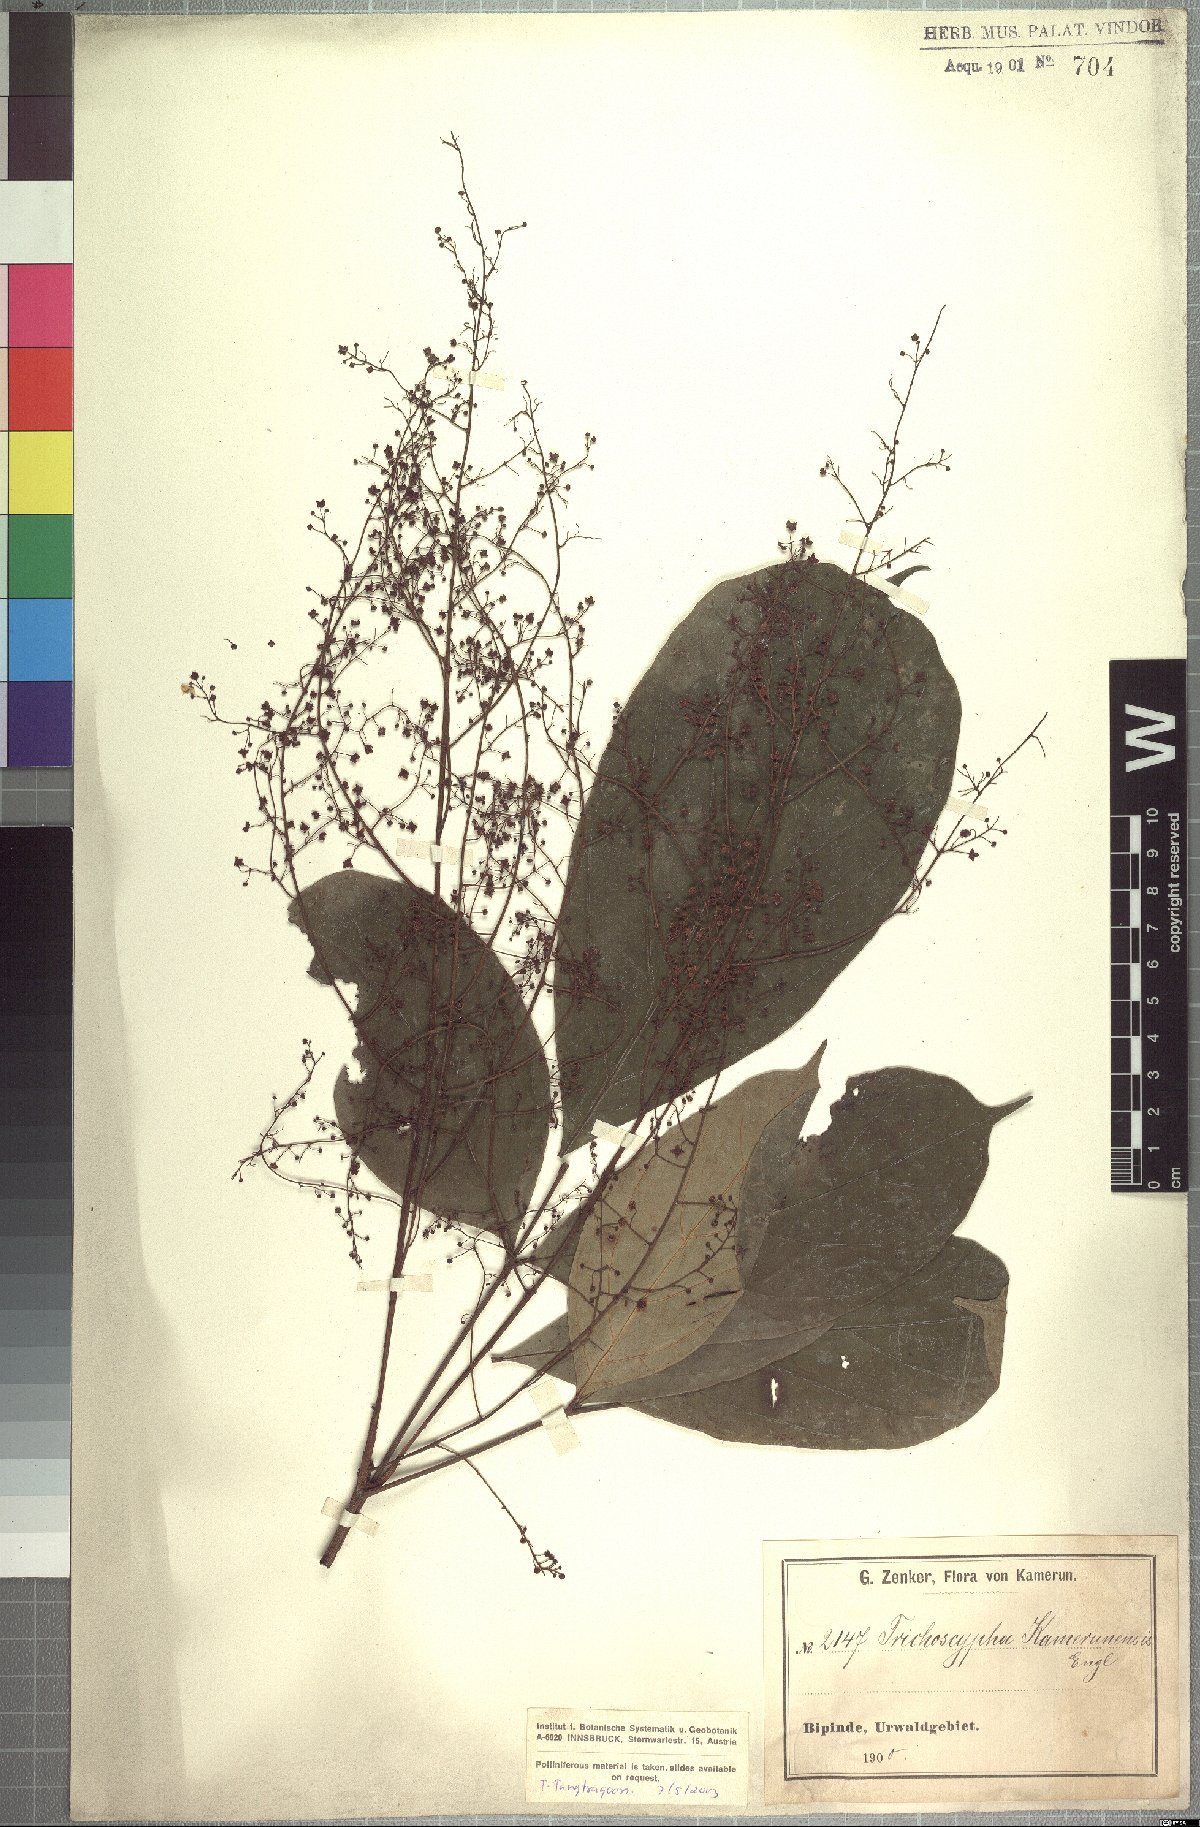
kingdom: Plantae
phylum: Tracheophyta
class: Magnoliopsida
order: Sapindales
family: Anacardiaceae
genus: Trichoscypha
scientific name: Trichoscypha laxiflora
